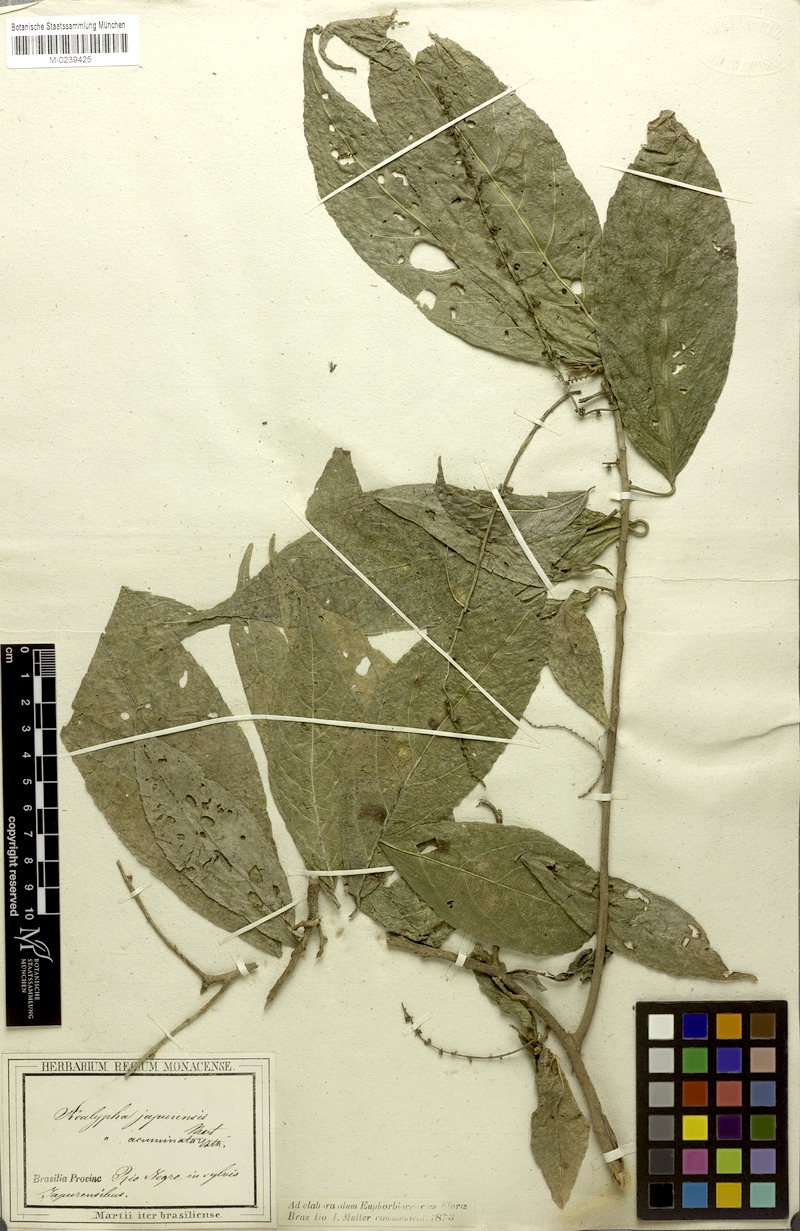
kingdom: Plantae
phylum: Tracheophyta
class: Magnoliopsida
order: Malpighiales
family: Euphorbiaceae
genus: Acalypha
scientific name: Acalypha acuminata
